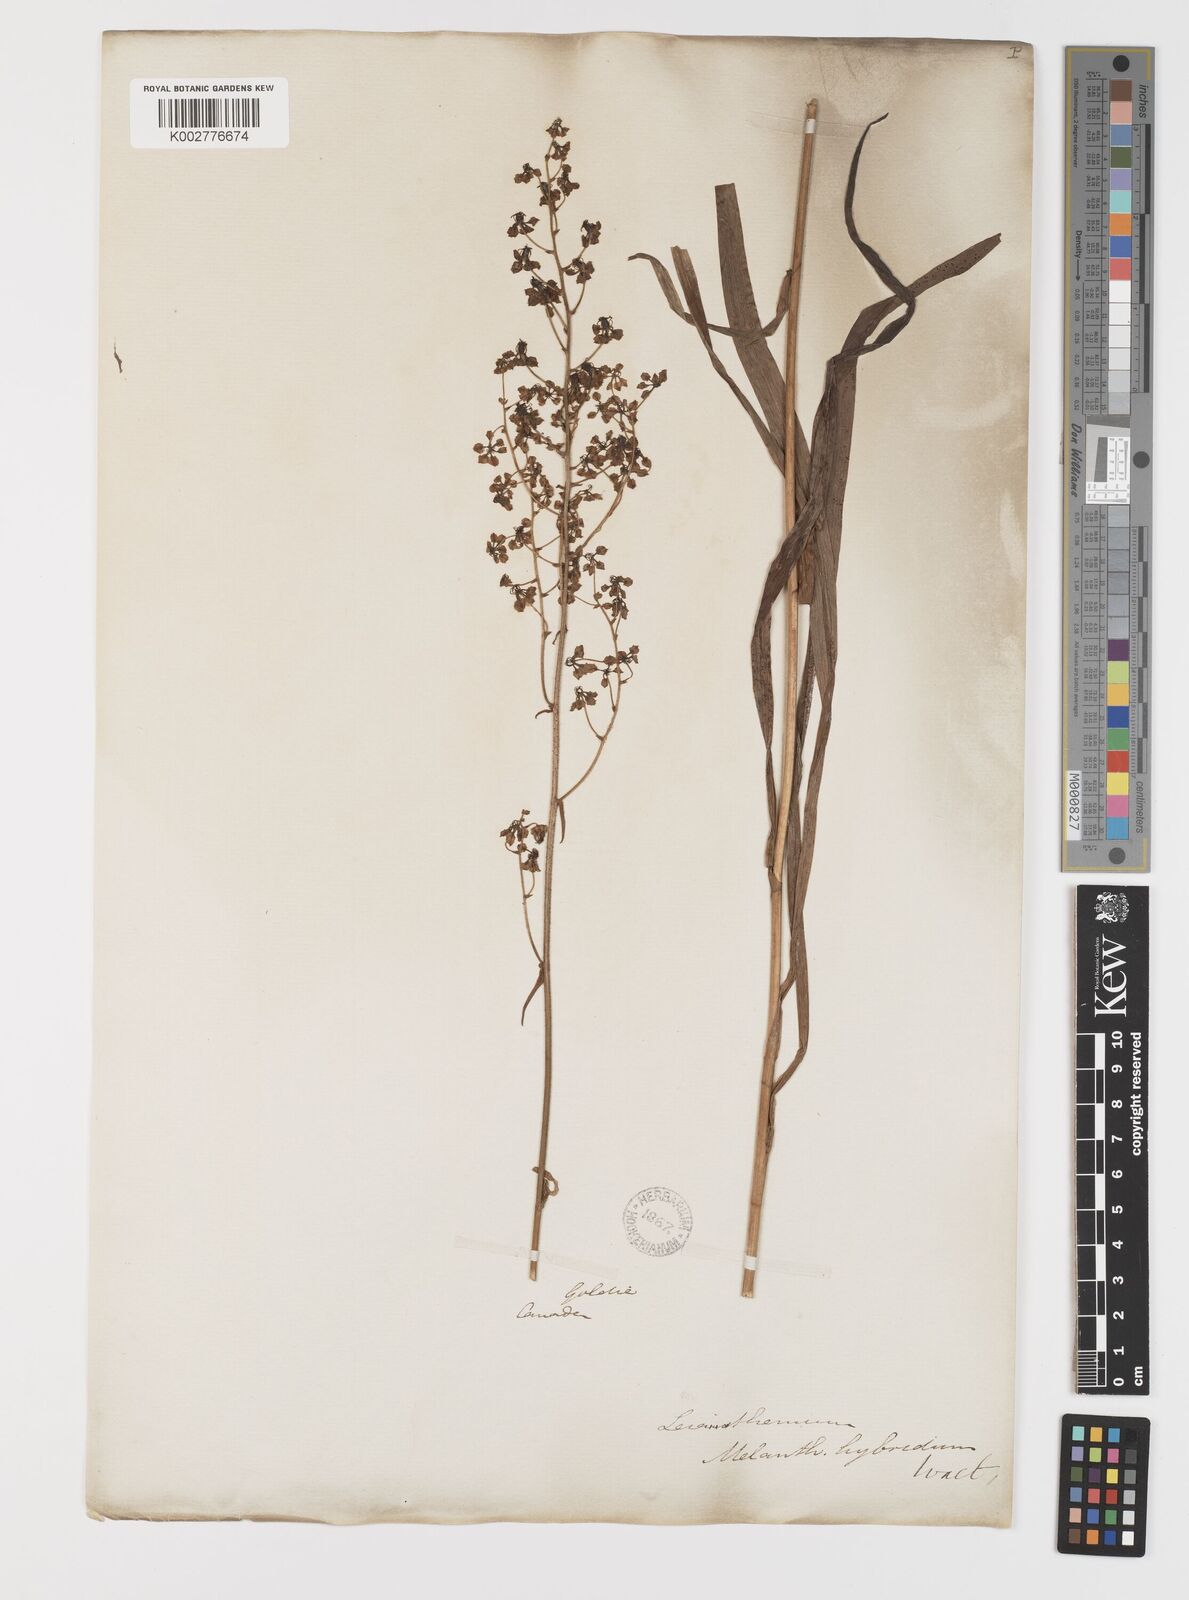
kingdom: Plantae
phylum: Tracheophyta
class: Liliopsida
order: Liliales
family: Melanthiaceae
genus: Melanthium
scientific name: Melanthium hybridum
